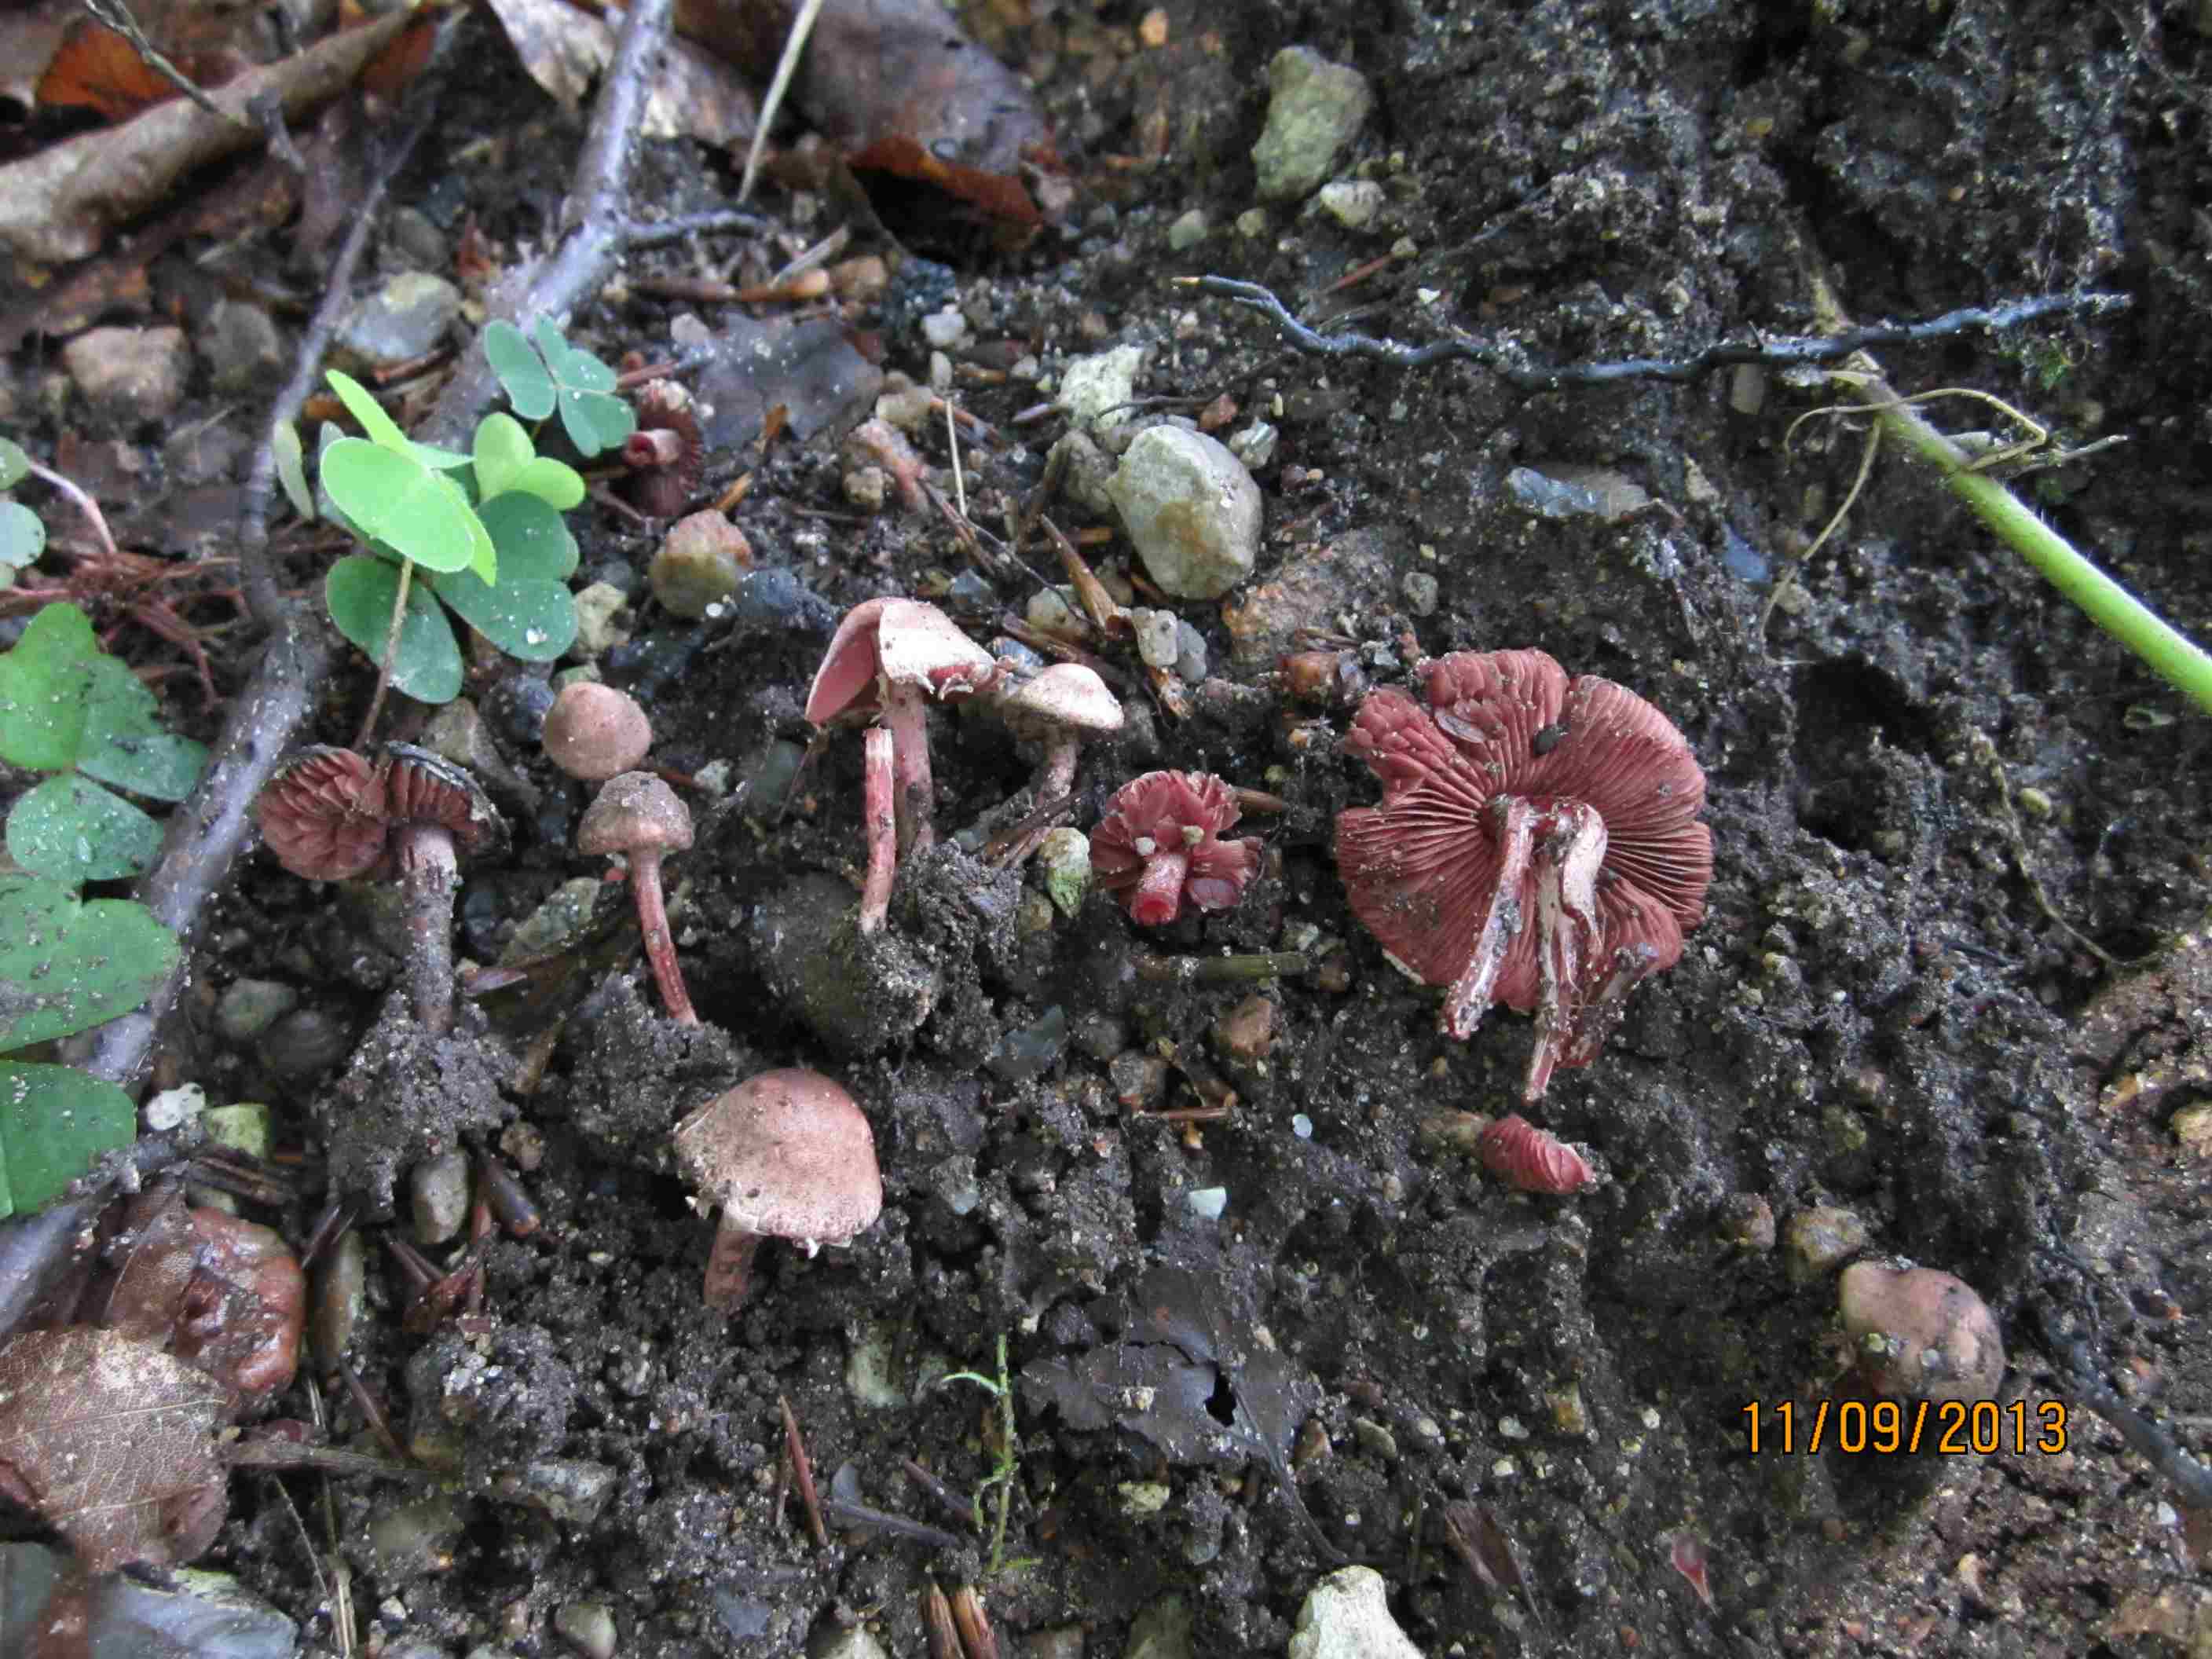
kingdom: Fungi
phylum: Basidiomycota
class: Agaricomycetes
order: Agaricales
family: Agaricaceae
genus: Melanophyllum
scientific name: Melanophyllum haematospermum
